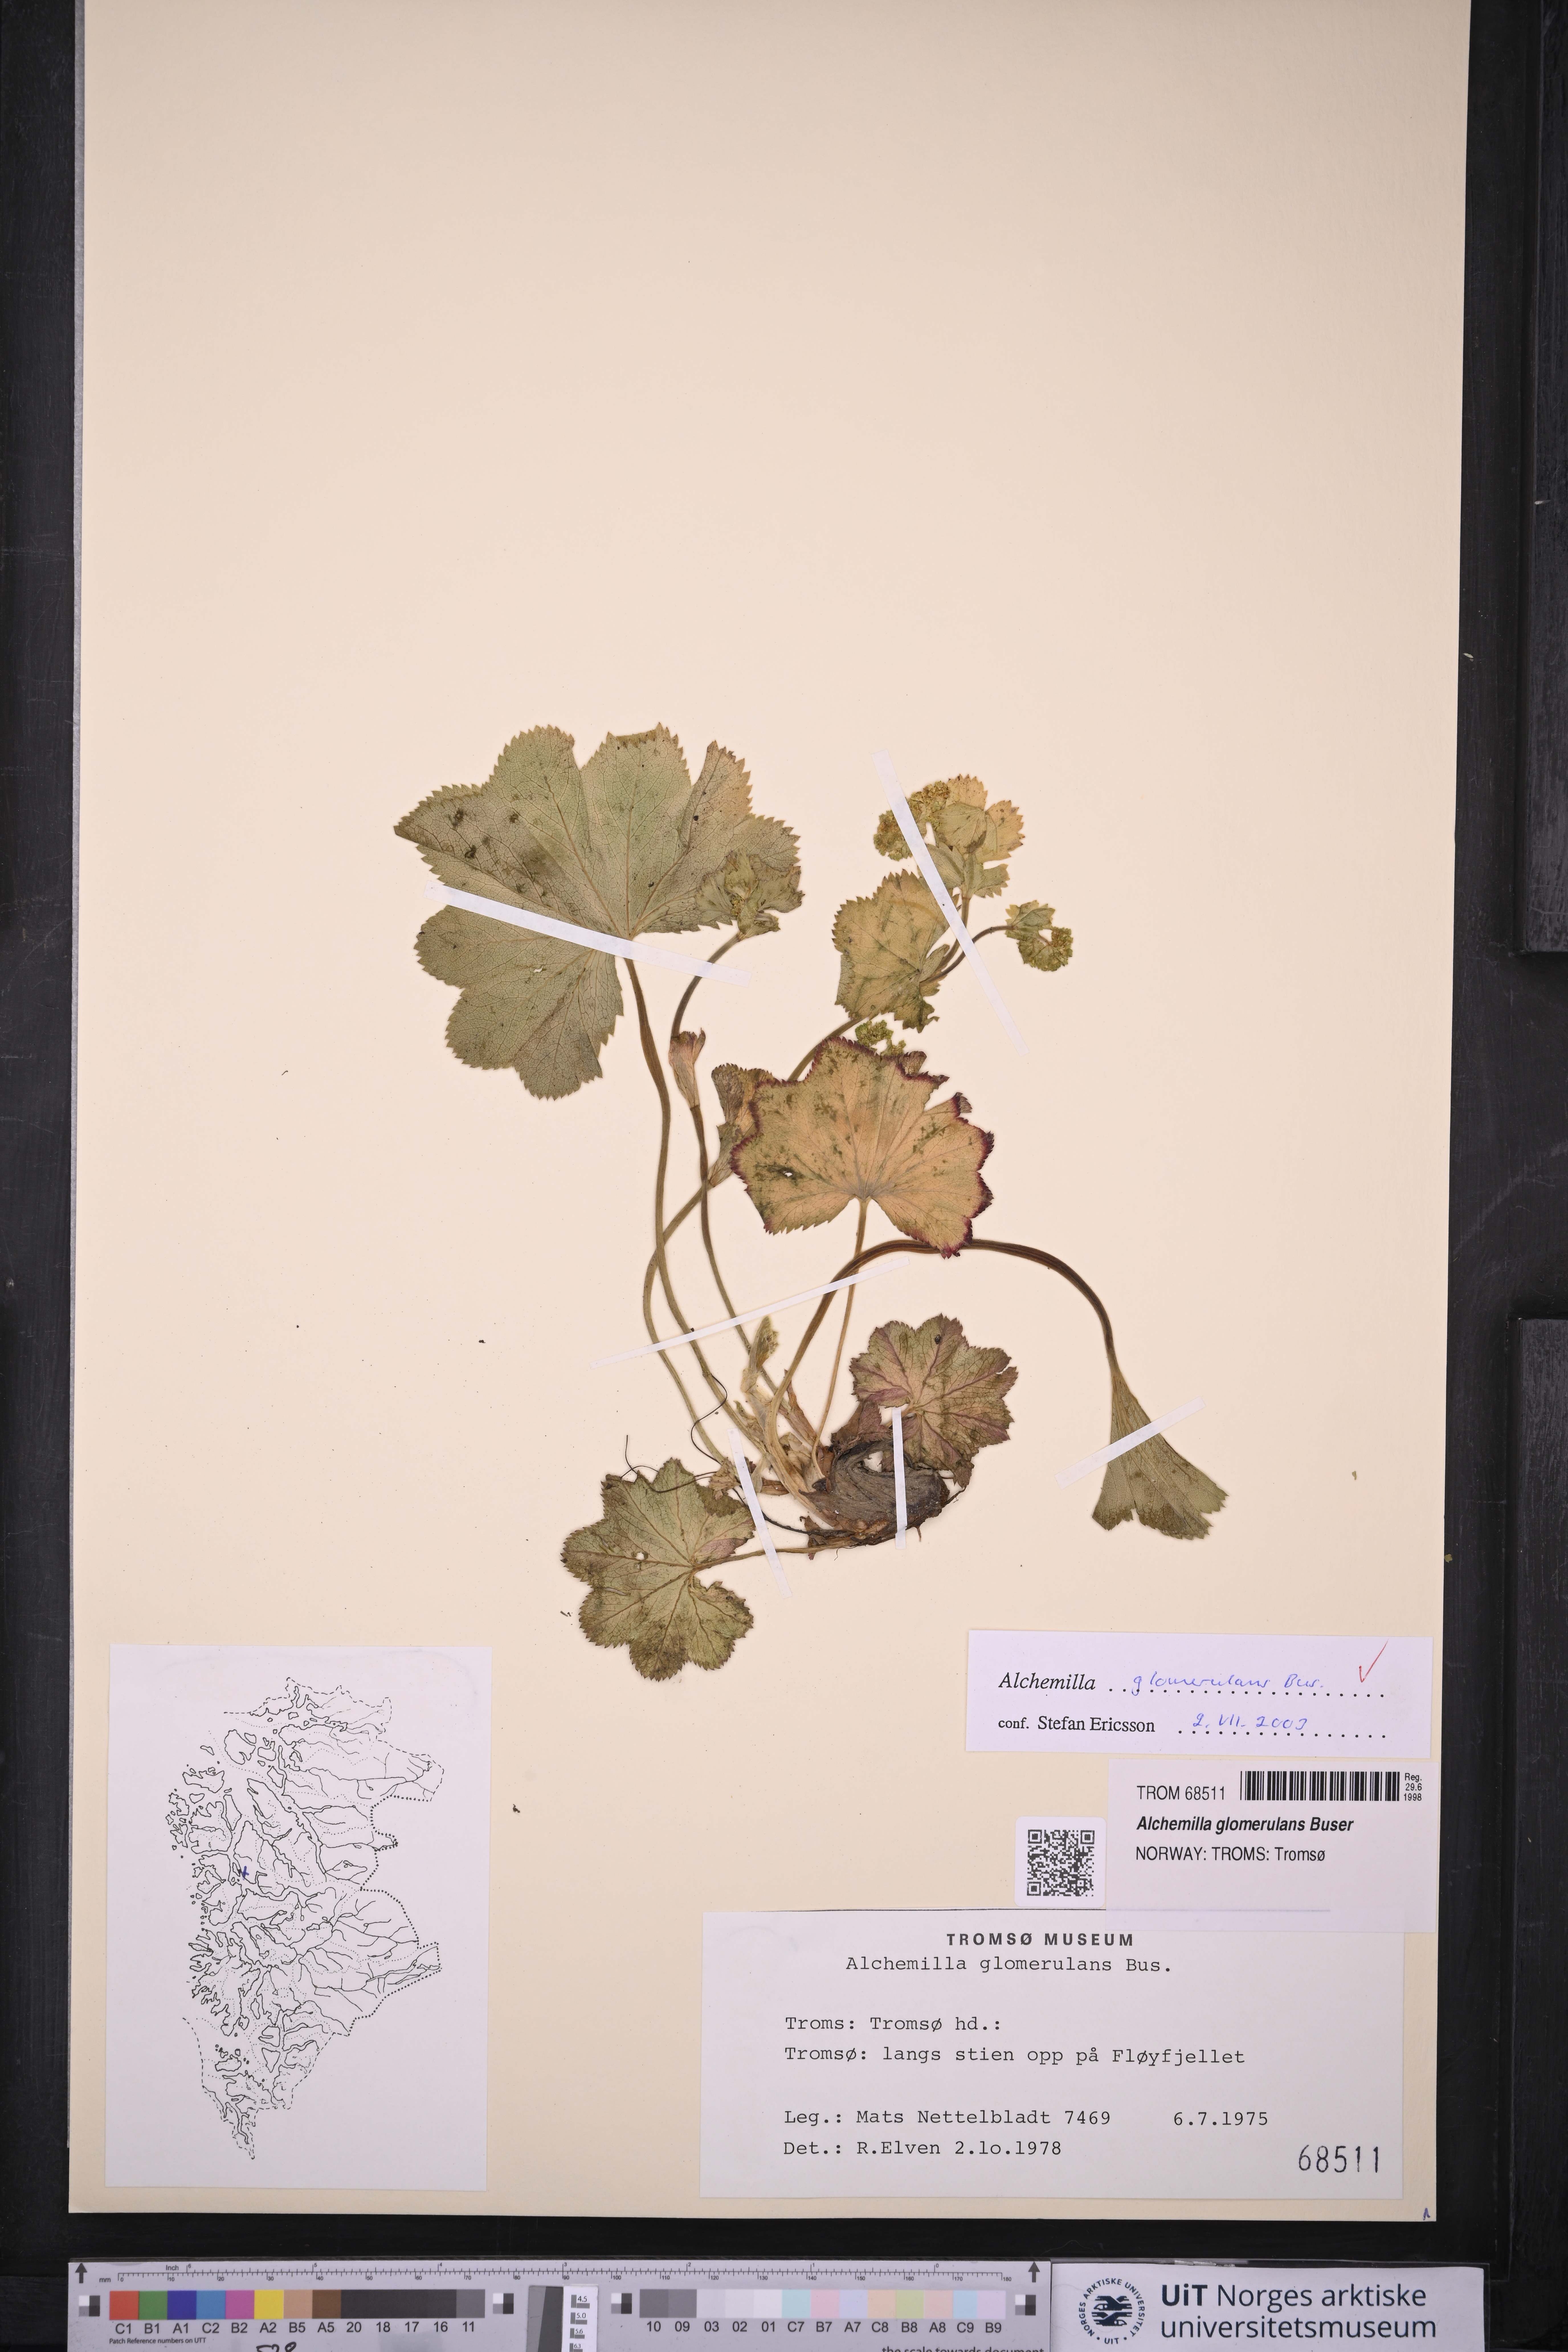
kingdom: Plantae
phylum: Tracheophyta
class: Magnoliopsida
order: Rosales
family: Rosaceae
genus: Alchemilla
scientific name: Alchemilla glomerulans
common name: Clustered lady's mantle
